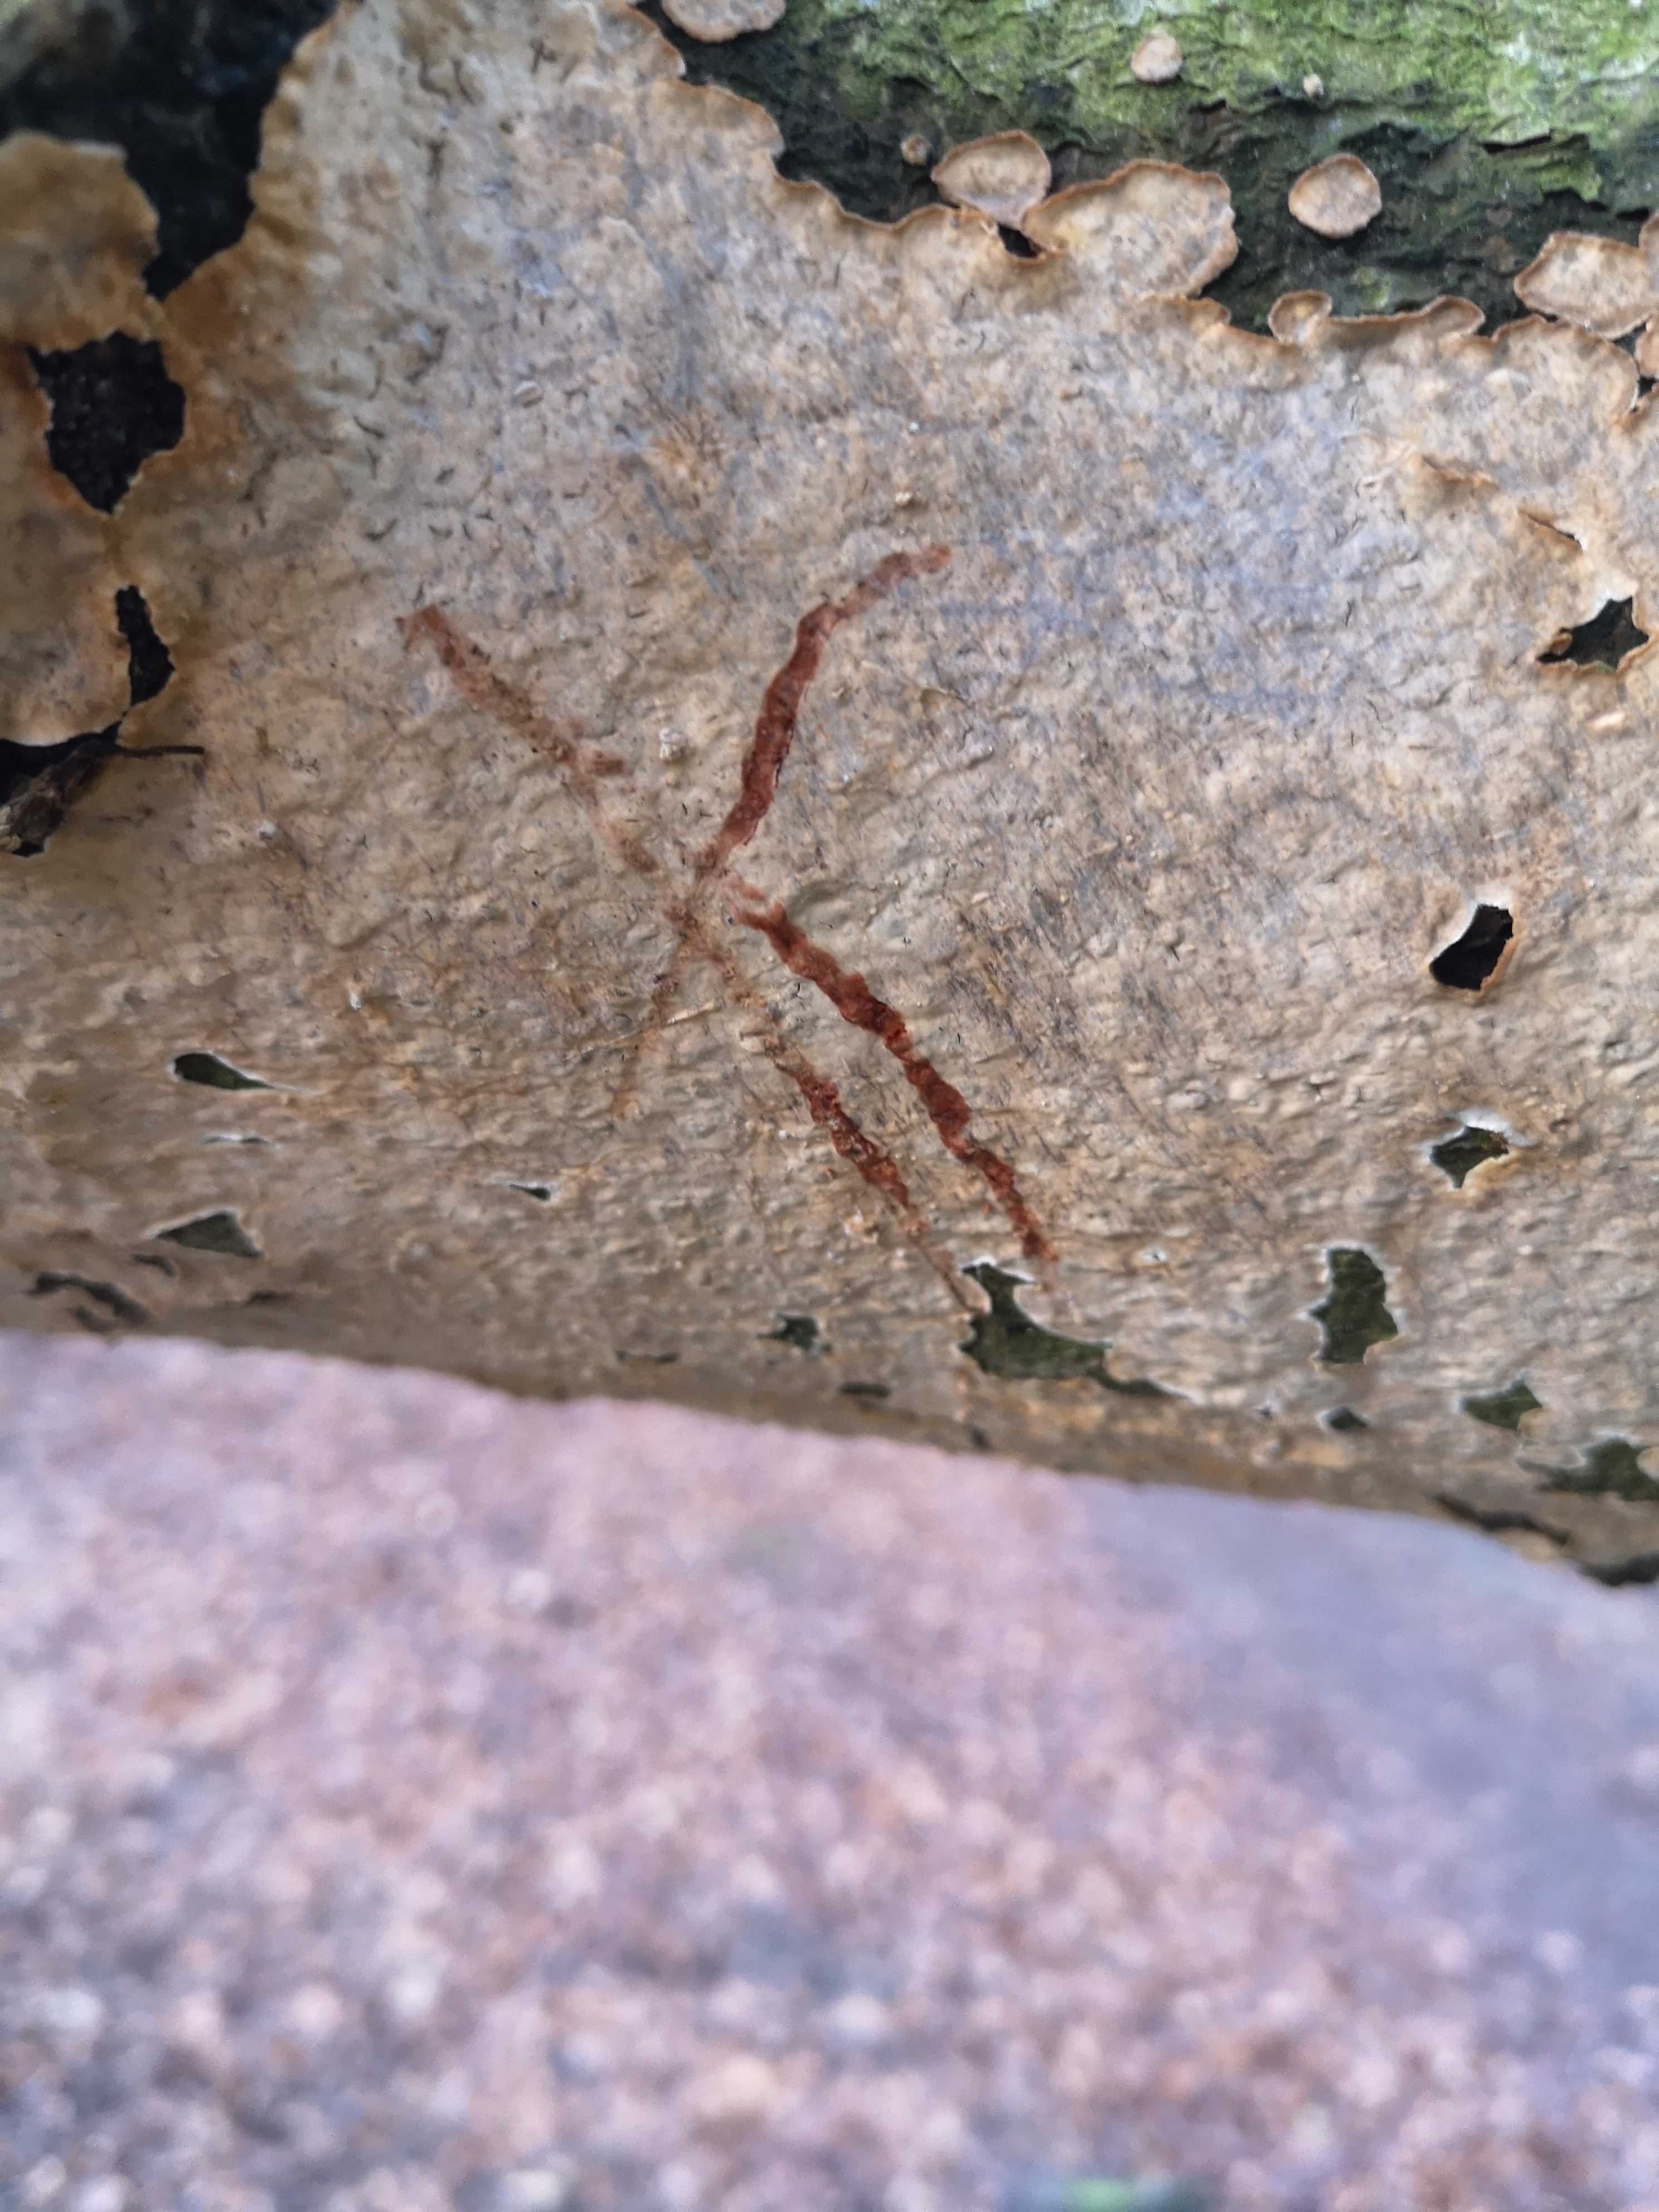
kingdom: Fungi
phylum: Basidiomycota
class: Agaricomycetes
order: Russulales
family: Stereaceae
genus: Stereum
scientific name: Stereum rugosum
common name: rynket lædersvamp
